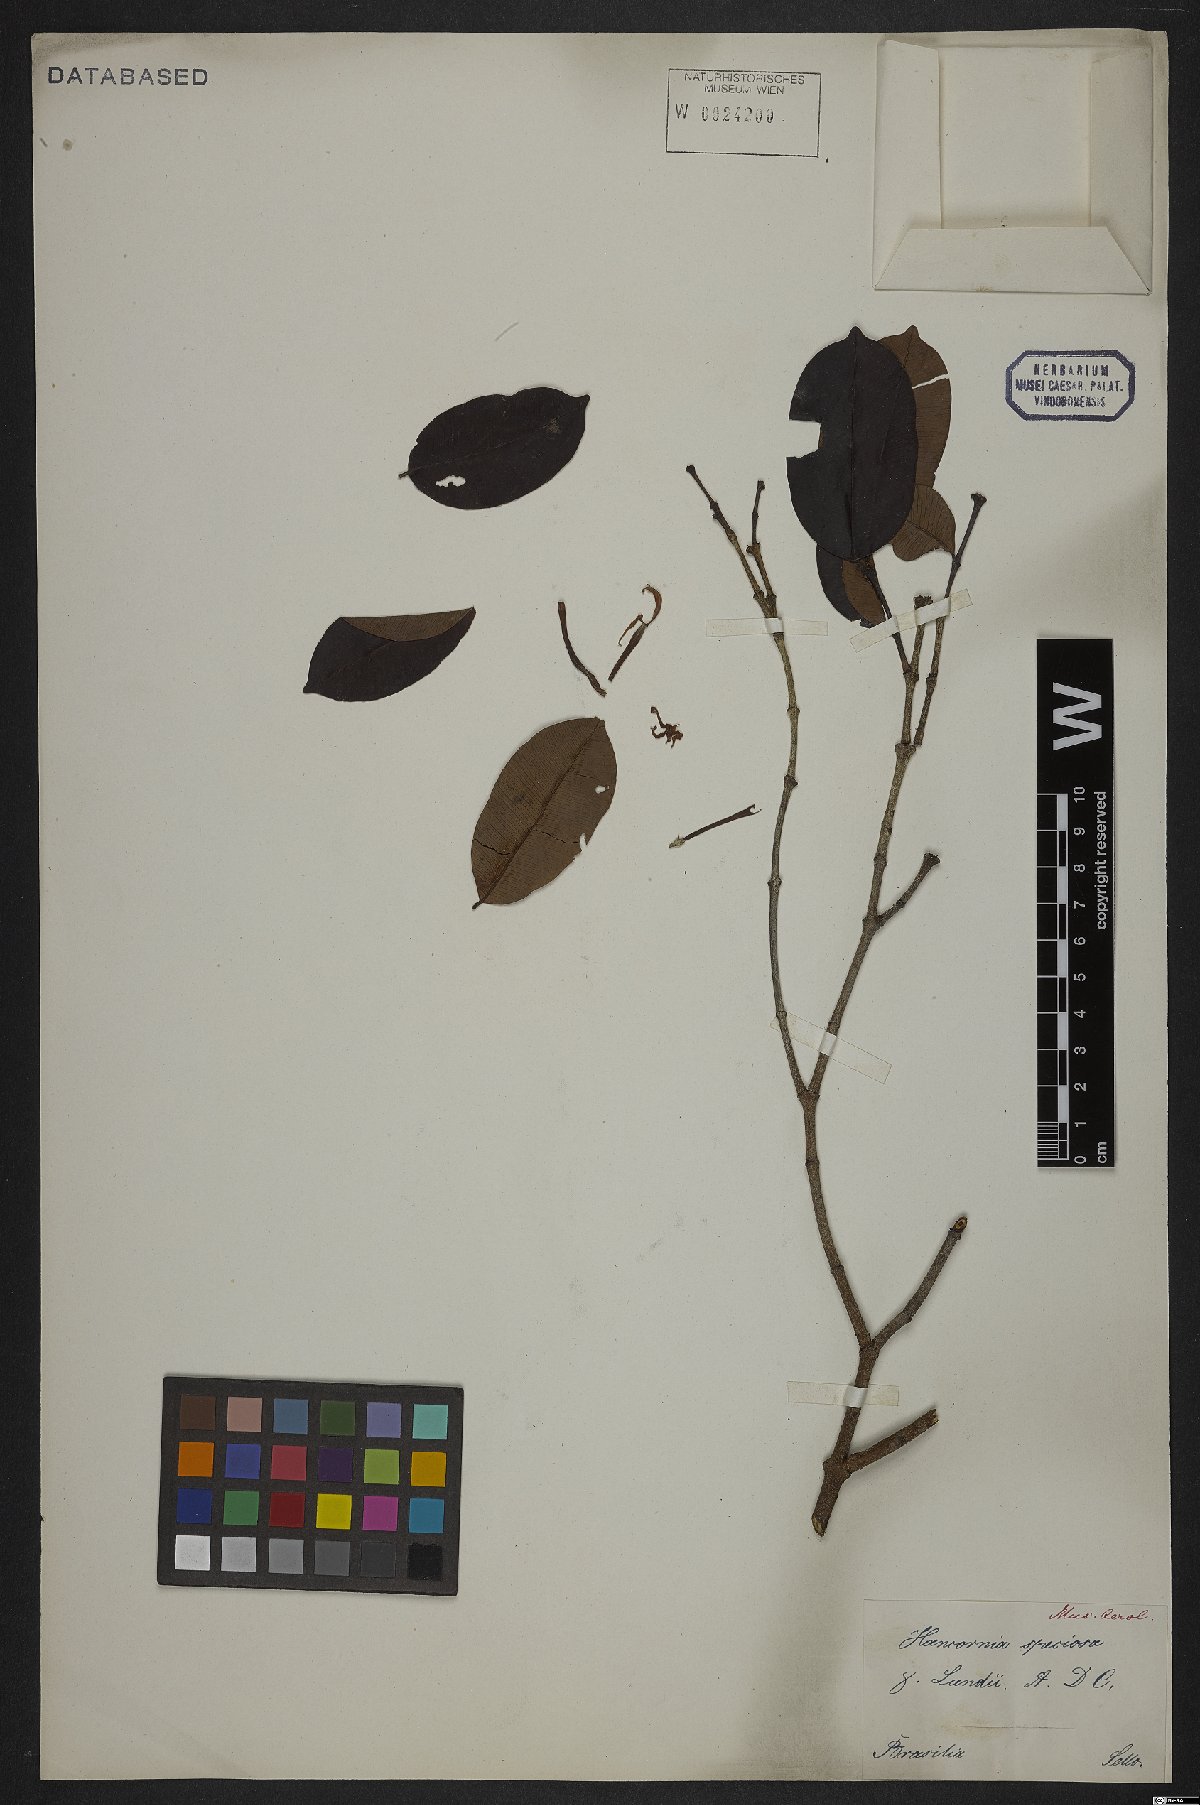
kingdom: Plantae
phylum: Tracheophyta
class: Magnoliopsida
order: Gentianales
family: Apocynaceae
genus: Hancornia
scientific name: Hancornia speciosa
